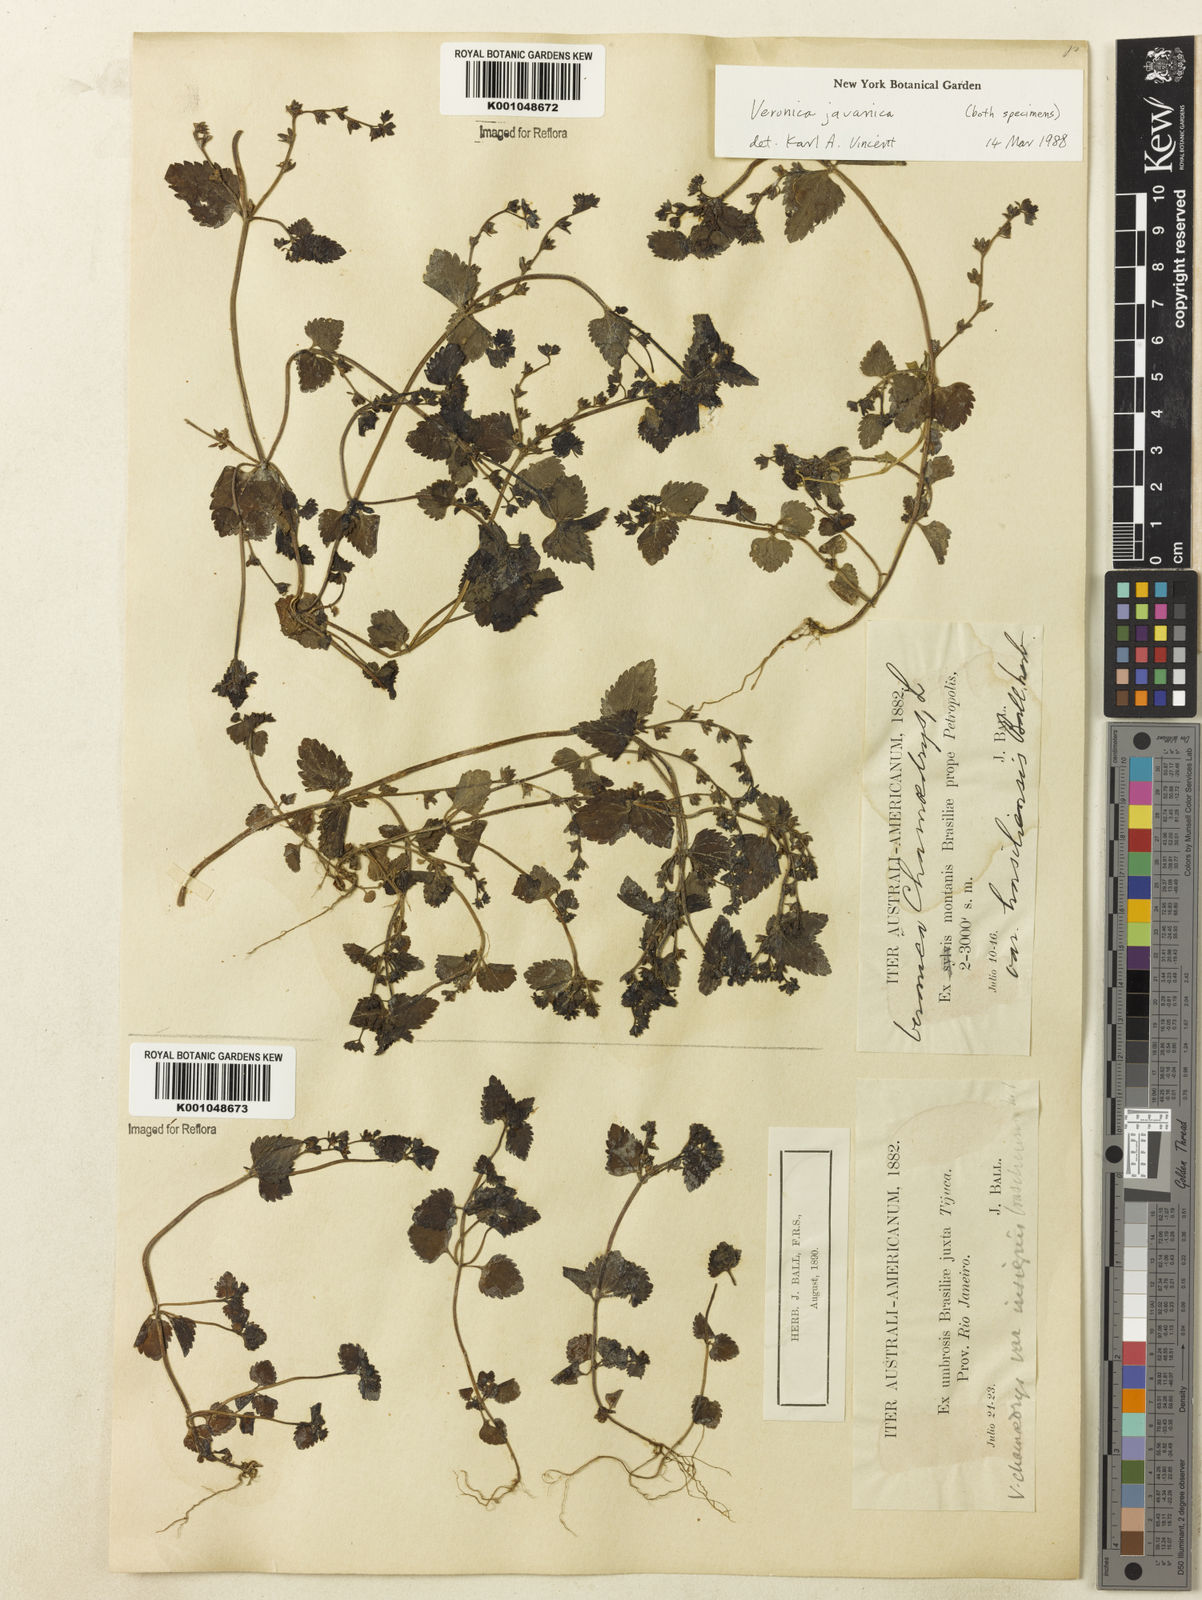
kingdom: Plantae
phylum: Tracheophyta
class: Magnoliopsida
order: Lamiales
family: Plantaginaceae
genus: Veronica
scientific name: Veronica javanica
